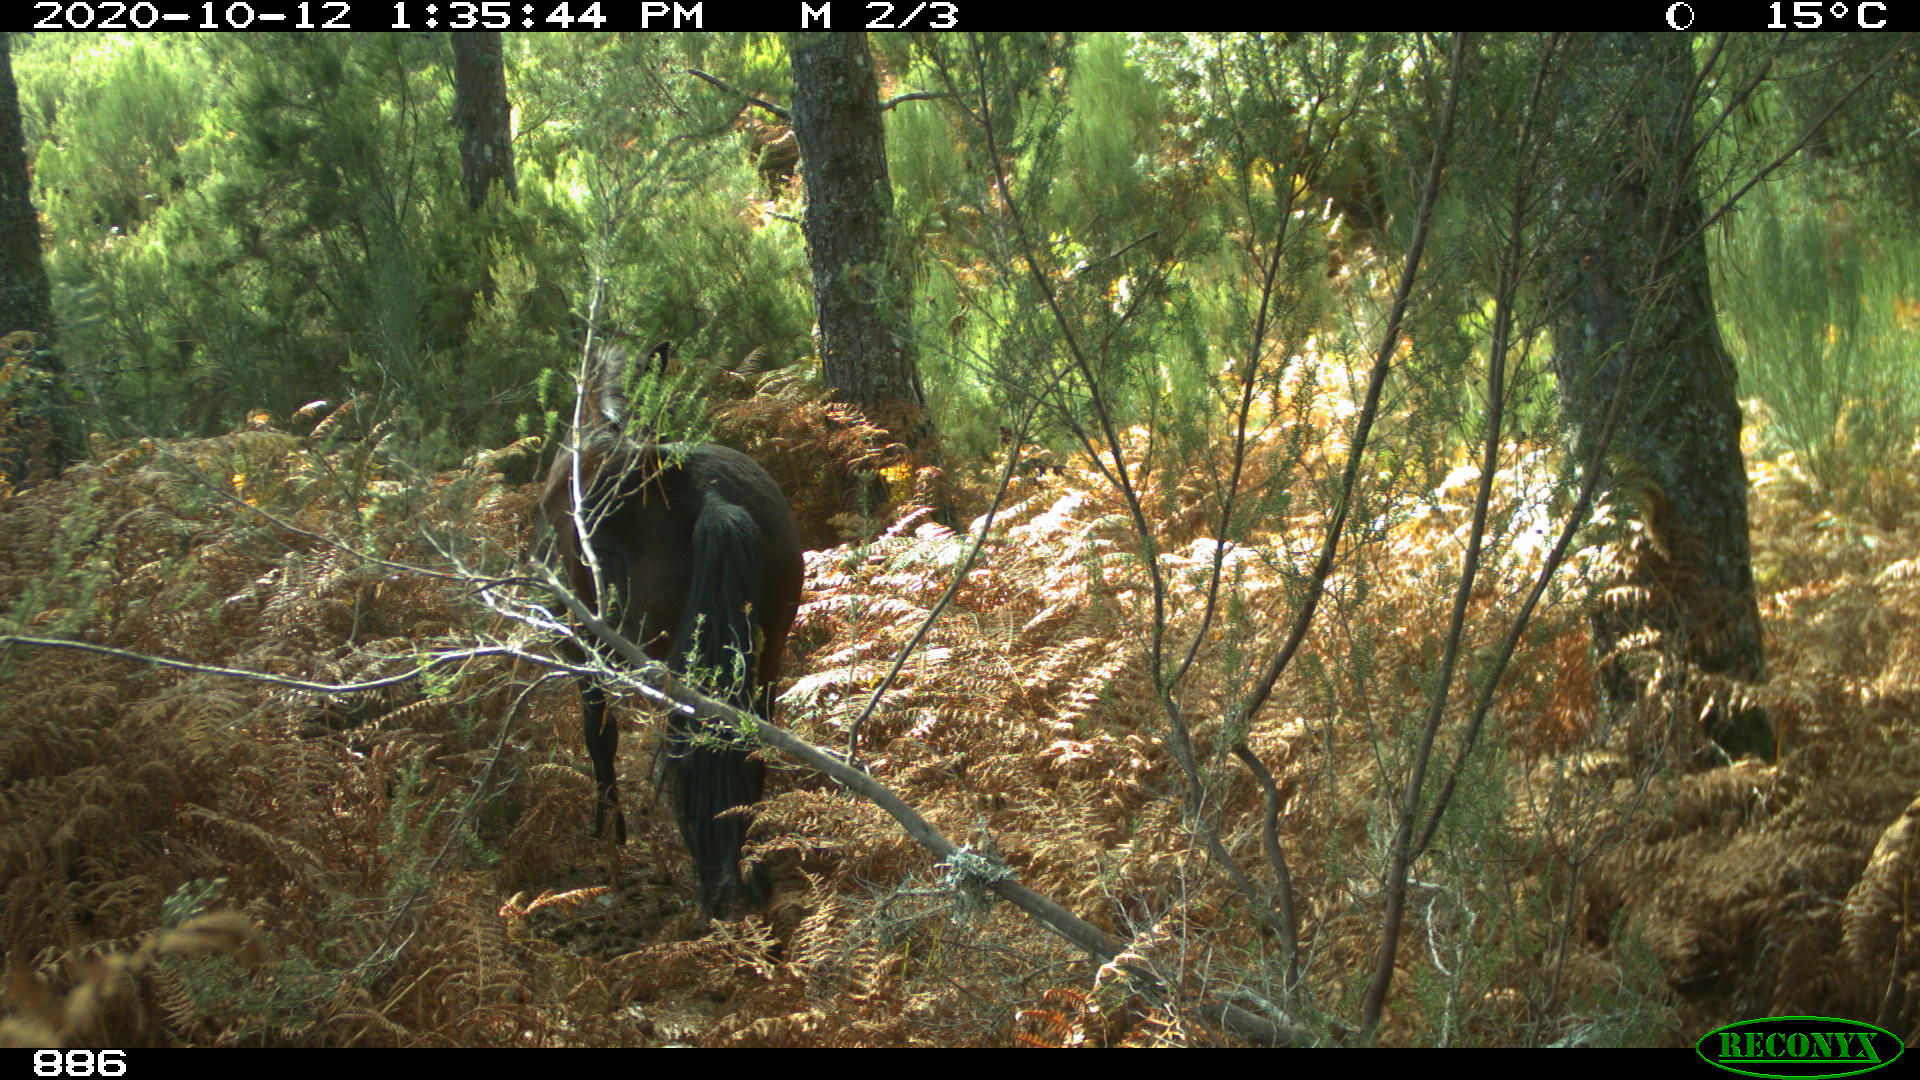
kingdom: Animalia
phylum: Chordata
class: Mammalia
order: Perissodactyla
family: Equidae
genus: Equus
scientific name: Equus caballus
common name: Horse
